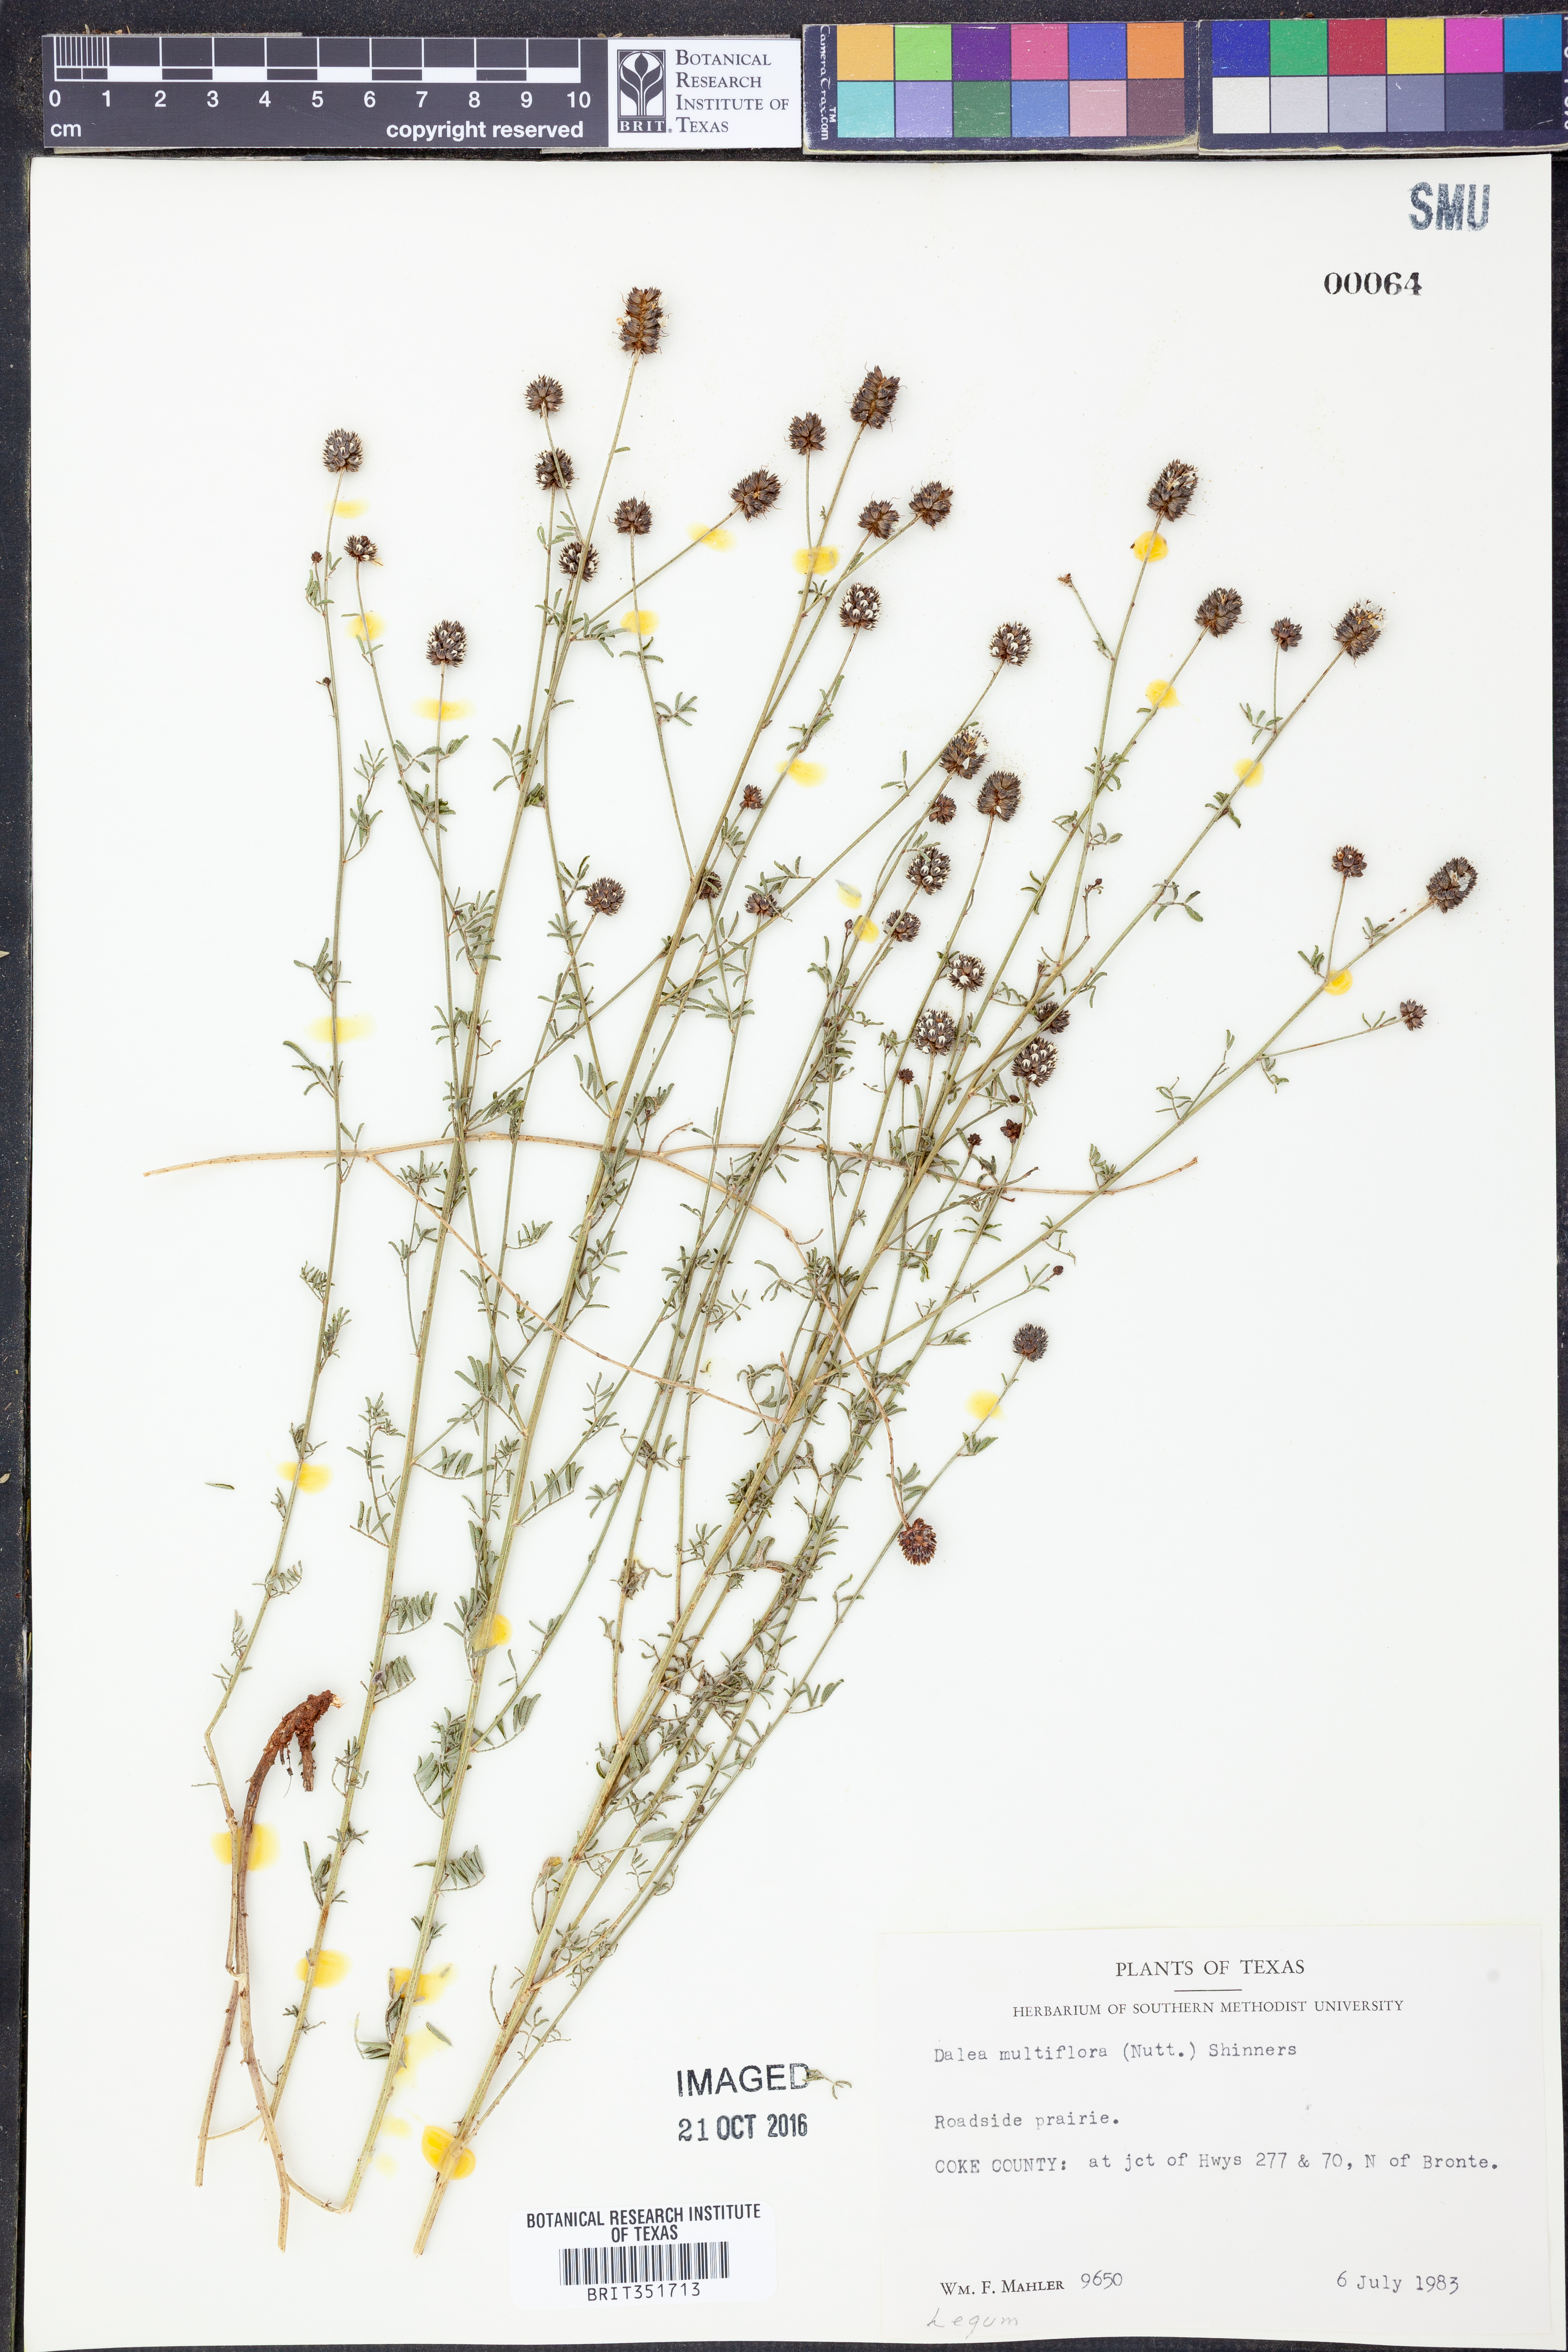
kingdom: Plantae
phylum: Tracheophyta
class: Magnoliopsida
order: Fabales
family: Fabaceae
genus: Dalea
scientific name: Dalea multiflora
